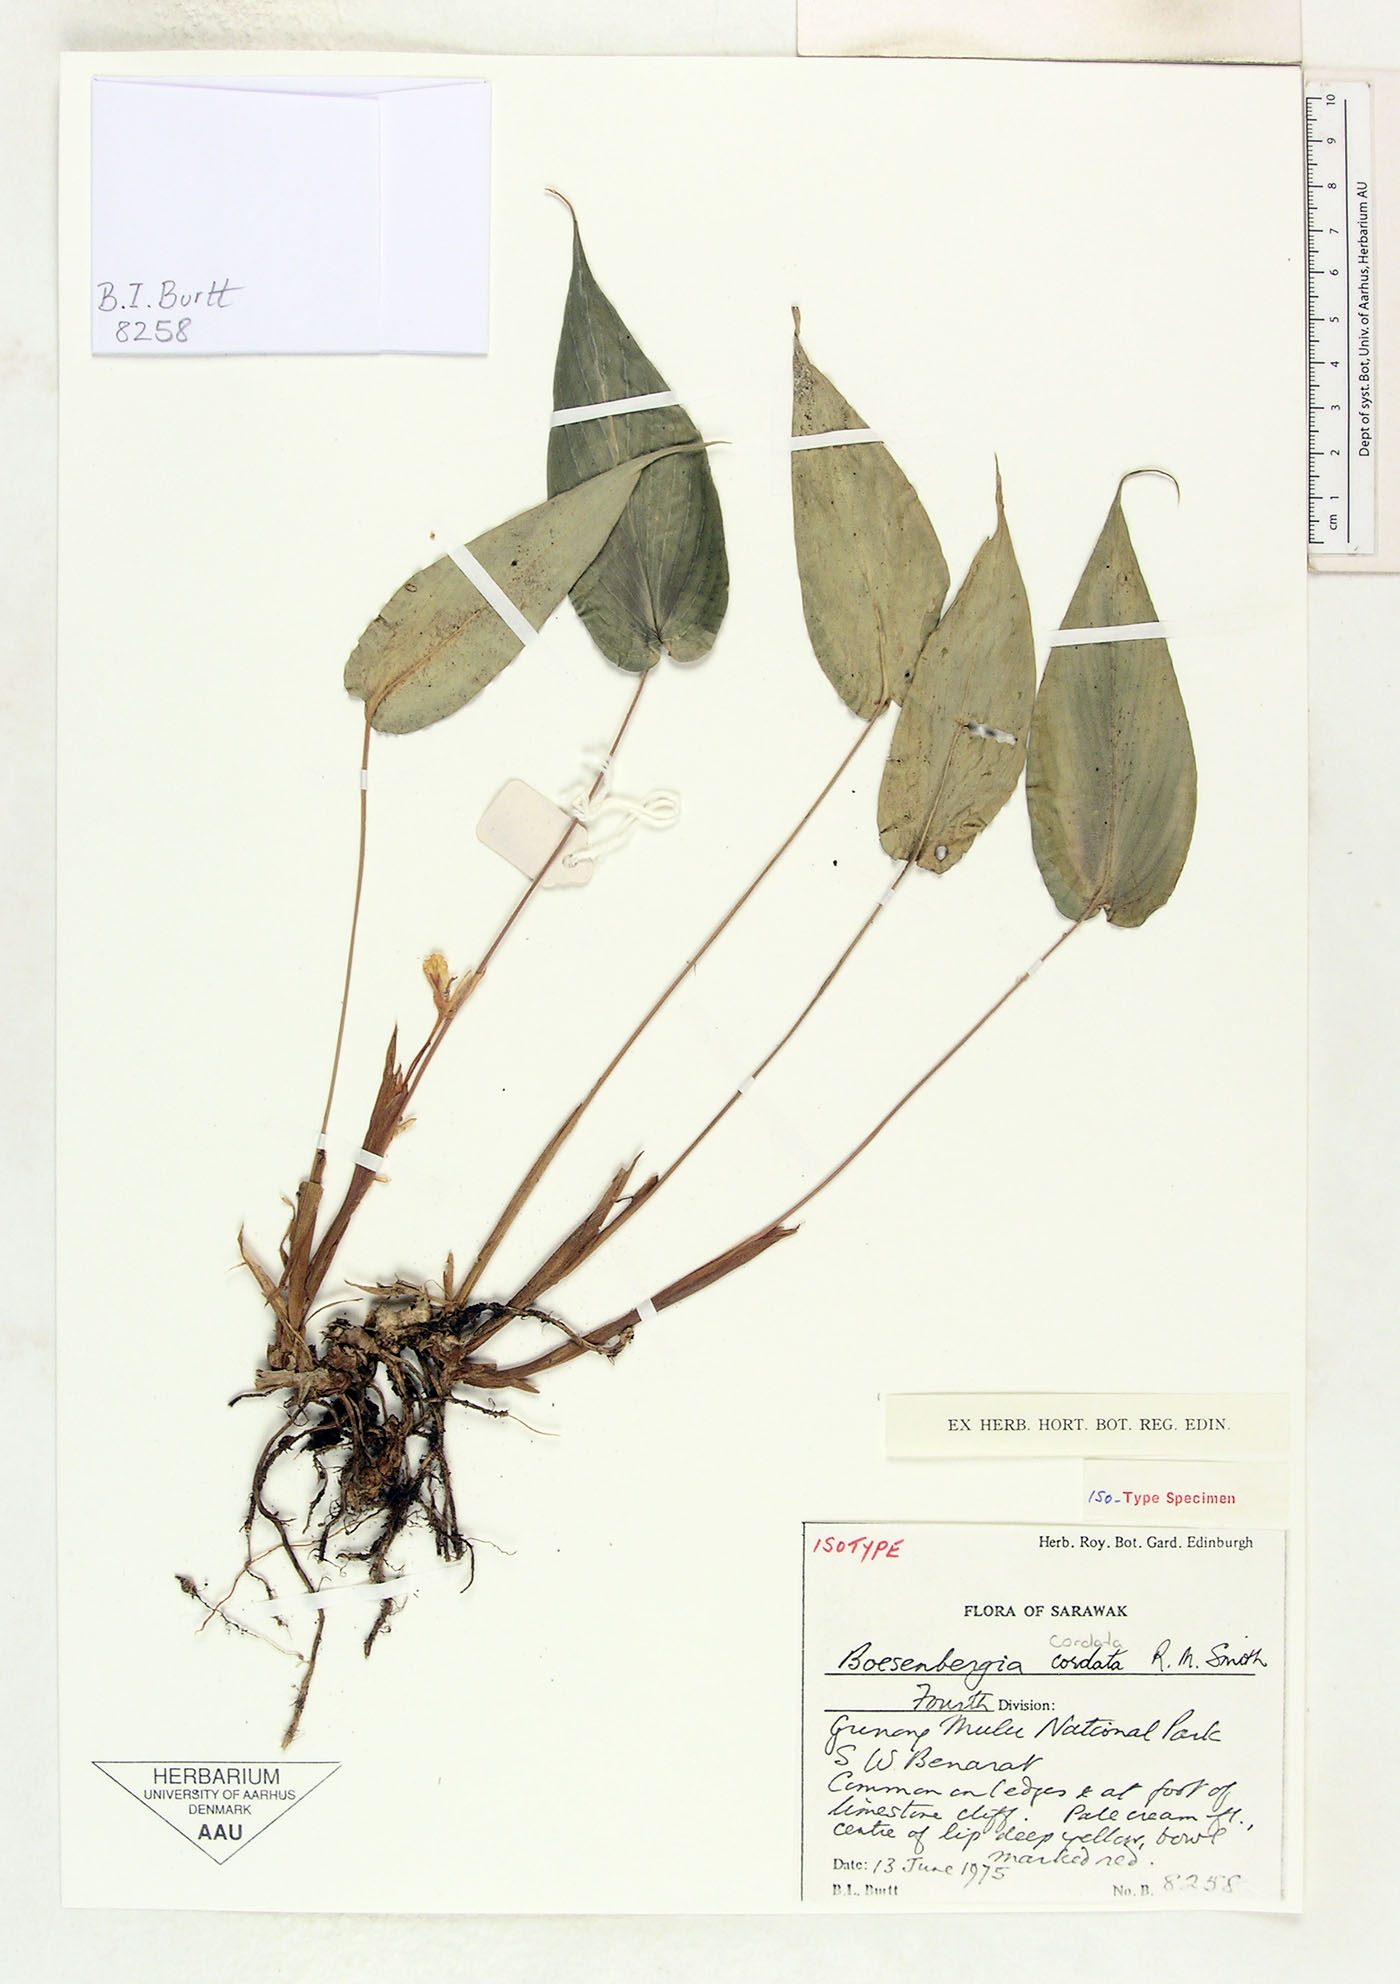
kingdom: Plantae
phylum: Tracheophyta
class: Liliopsida
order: Zingiberales
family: Zingiberaceae
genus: Boesenbergia
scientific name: Boesenbergia cordata
